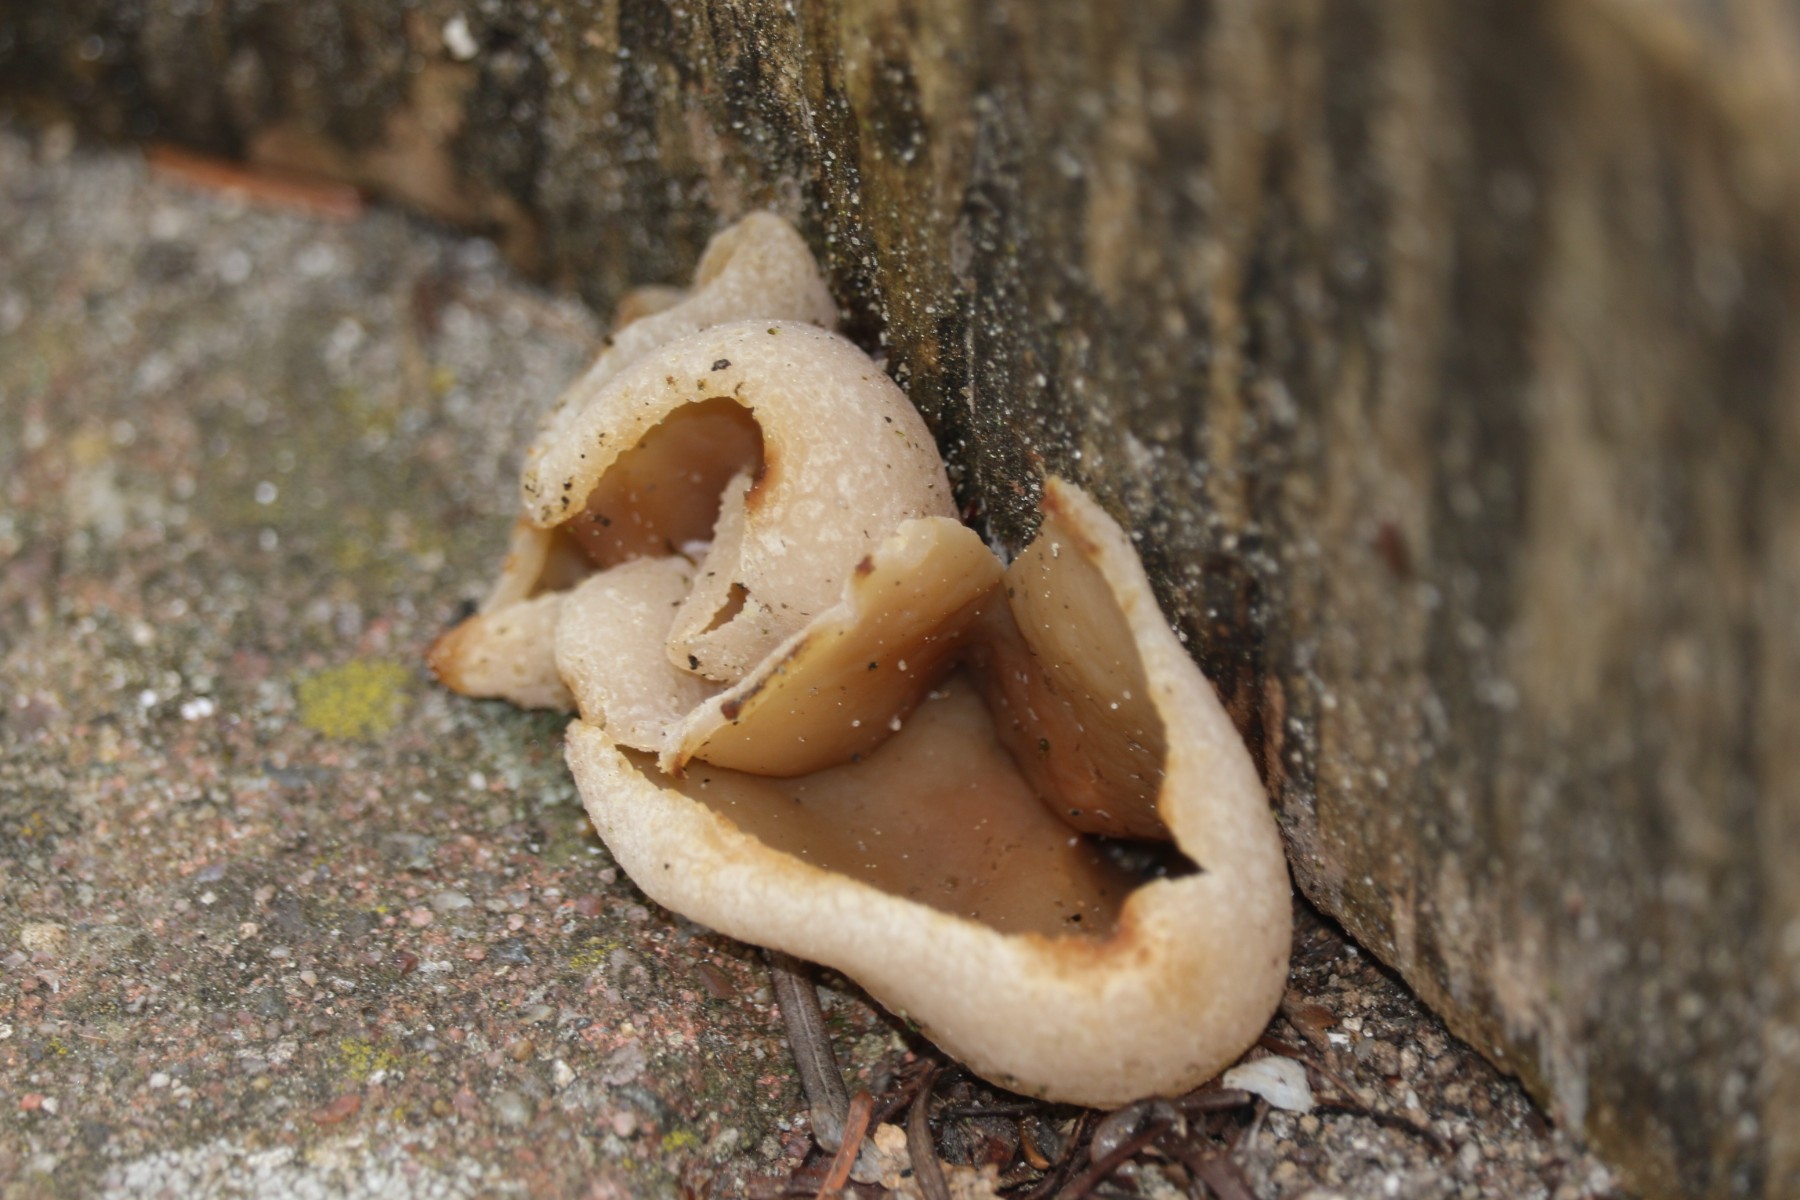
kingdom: Fungi
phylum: Ascomycota
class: Pezizomycetes
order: Pezizales
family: Pezizaceae
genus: Peziza
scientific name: Peziza varia
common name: Ved-bægersvamp
